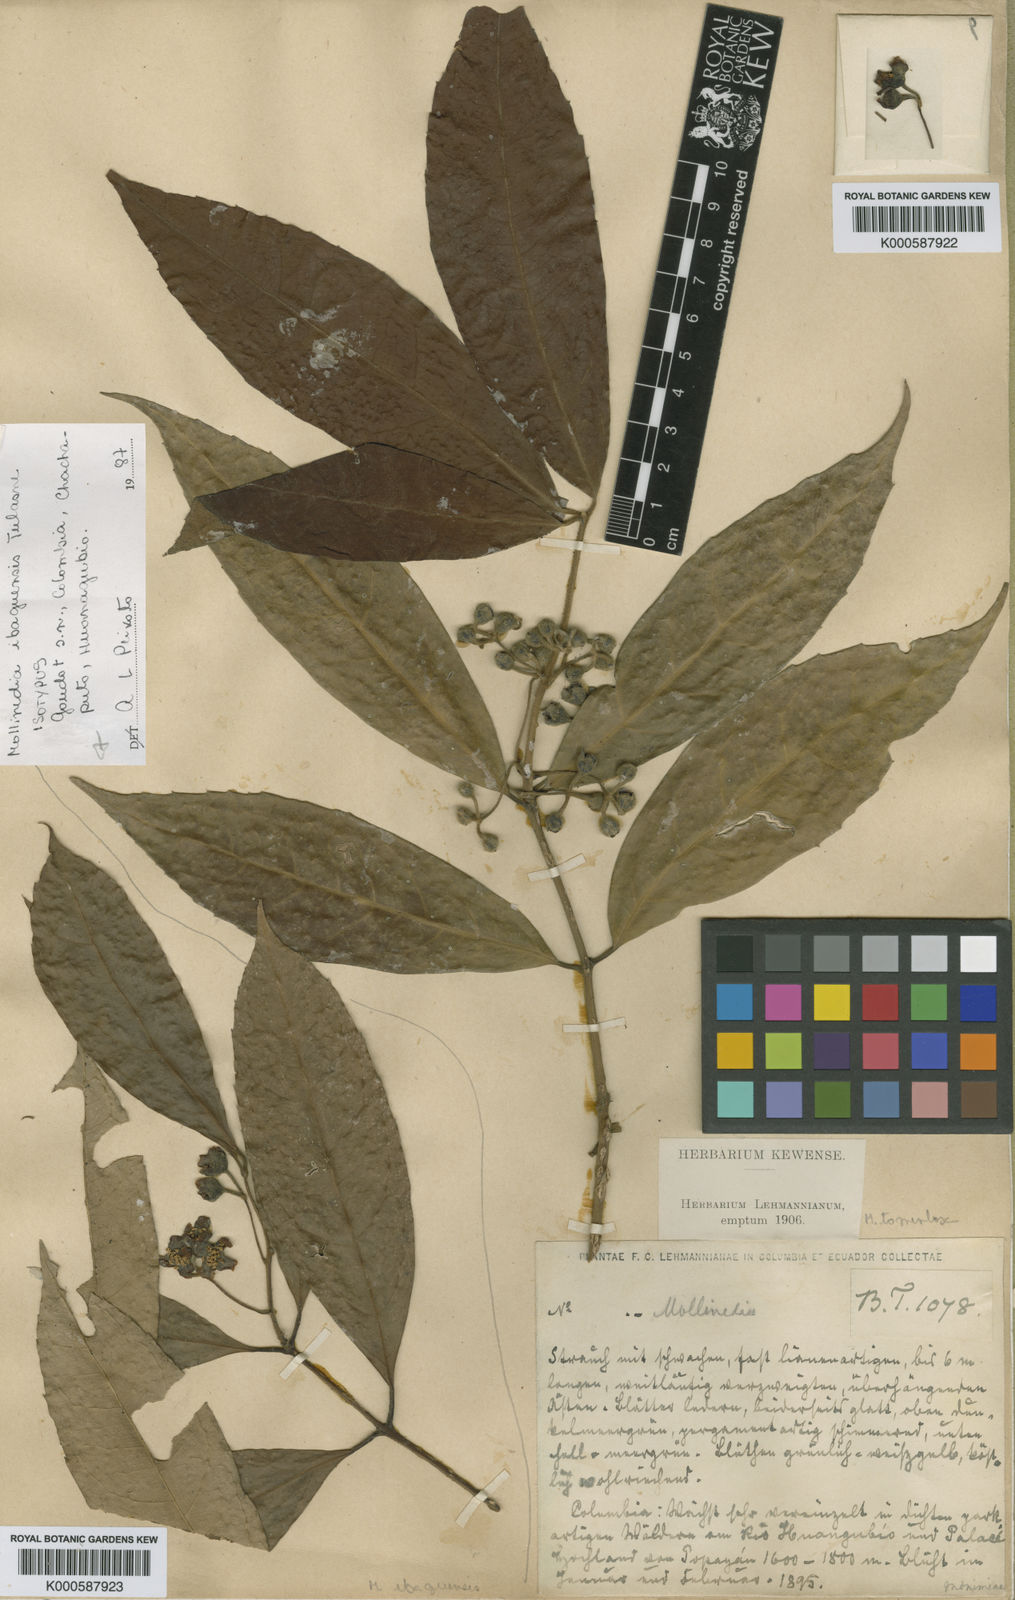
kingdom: Plantae
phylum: Tracheophyta
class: Magnoliopsida
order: Laurales
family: Monimiaceae
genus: Mollinedia
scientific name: Mollinedia tomentosa
